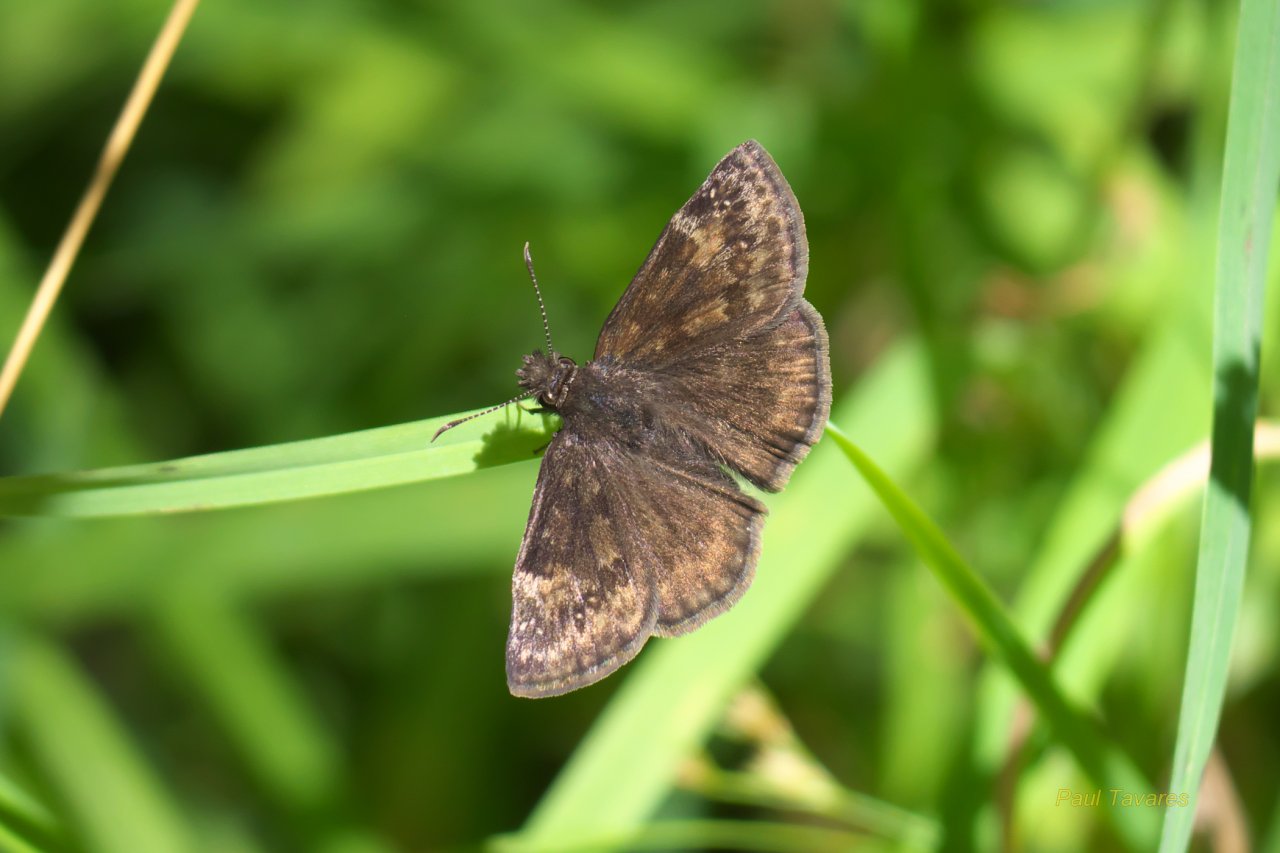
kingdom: Animalia
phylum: Arthropoda
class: Insecta
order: Lepidoptera
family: Hesperiidae
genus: Gesta
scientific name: Gesta
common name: Wild Indigo Duskywing
